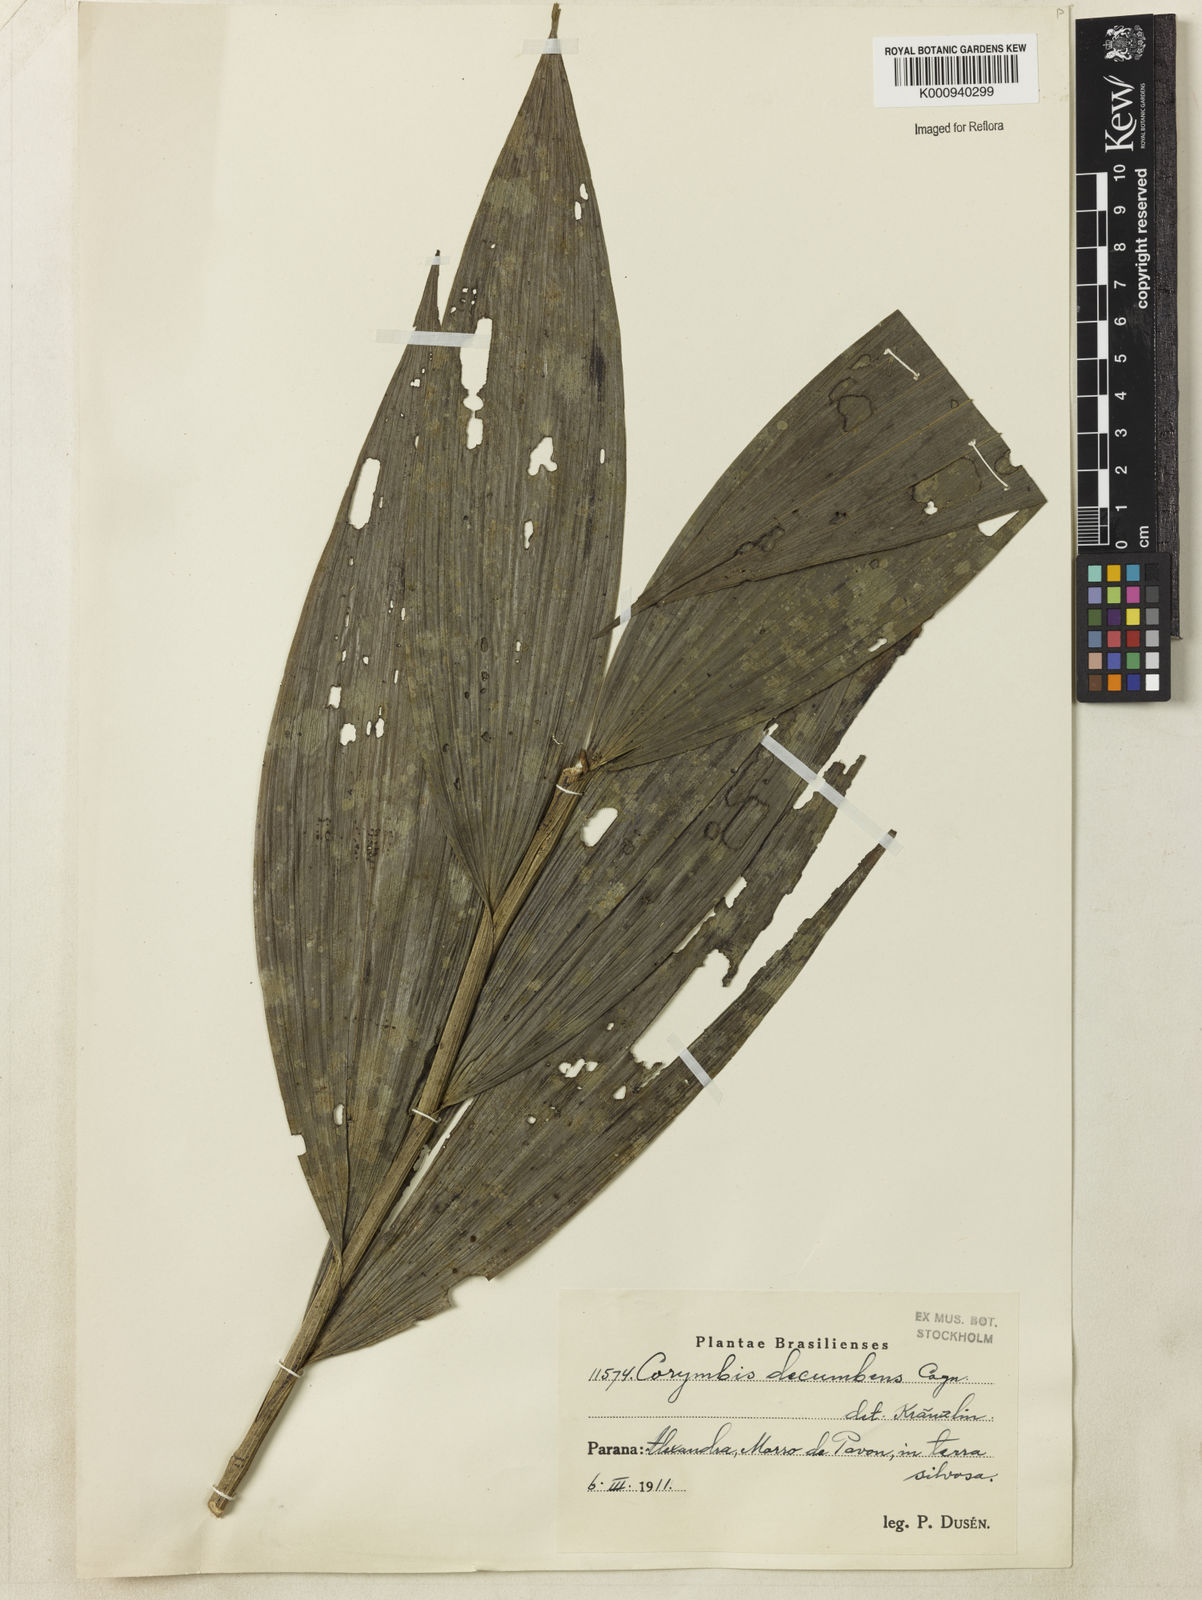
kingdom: Plantae
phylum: Tracheophyta
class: Liliopsida
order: Asparagales
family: Orchidaceae
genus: Corymborkis
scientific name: Corymborkis flava
